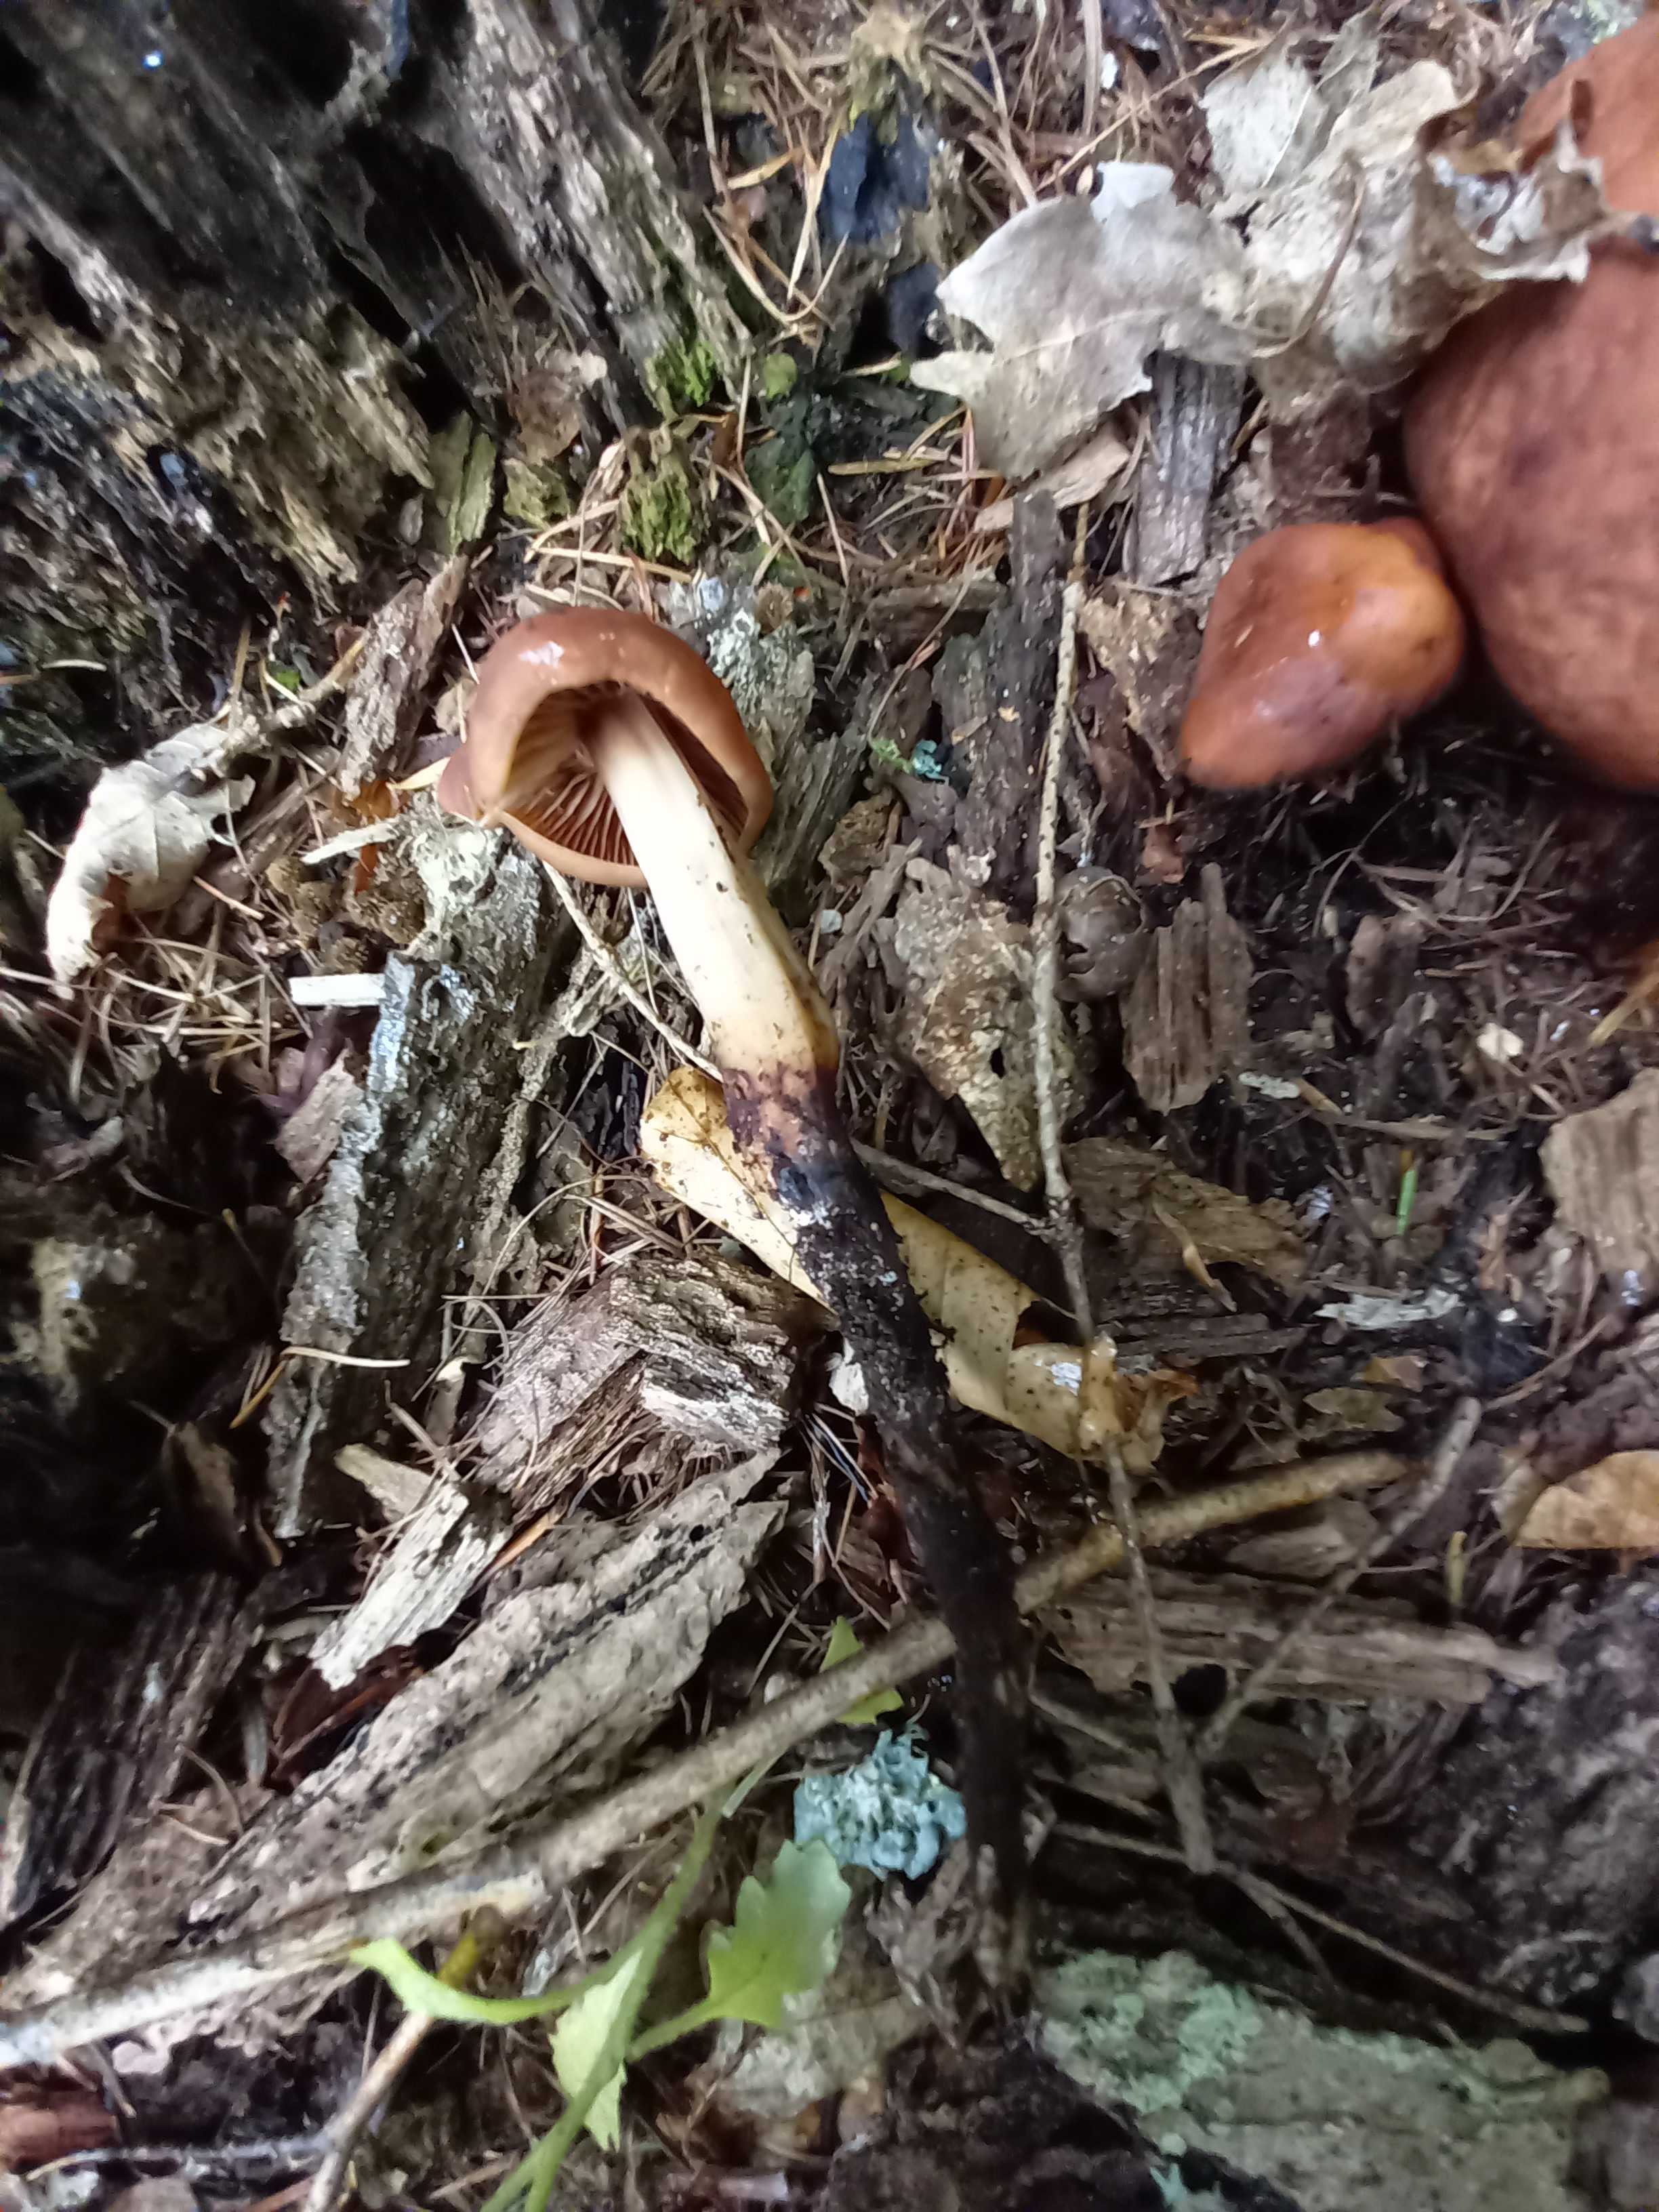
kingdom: Fungi
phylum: Basidiomycota
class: Agaricomycetes
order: Agaricales
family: Omphalotaceae
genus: Gymnopus
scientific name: Gymnopus fusipes
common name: tenstokket fladhat
